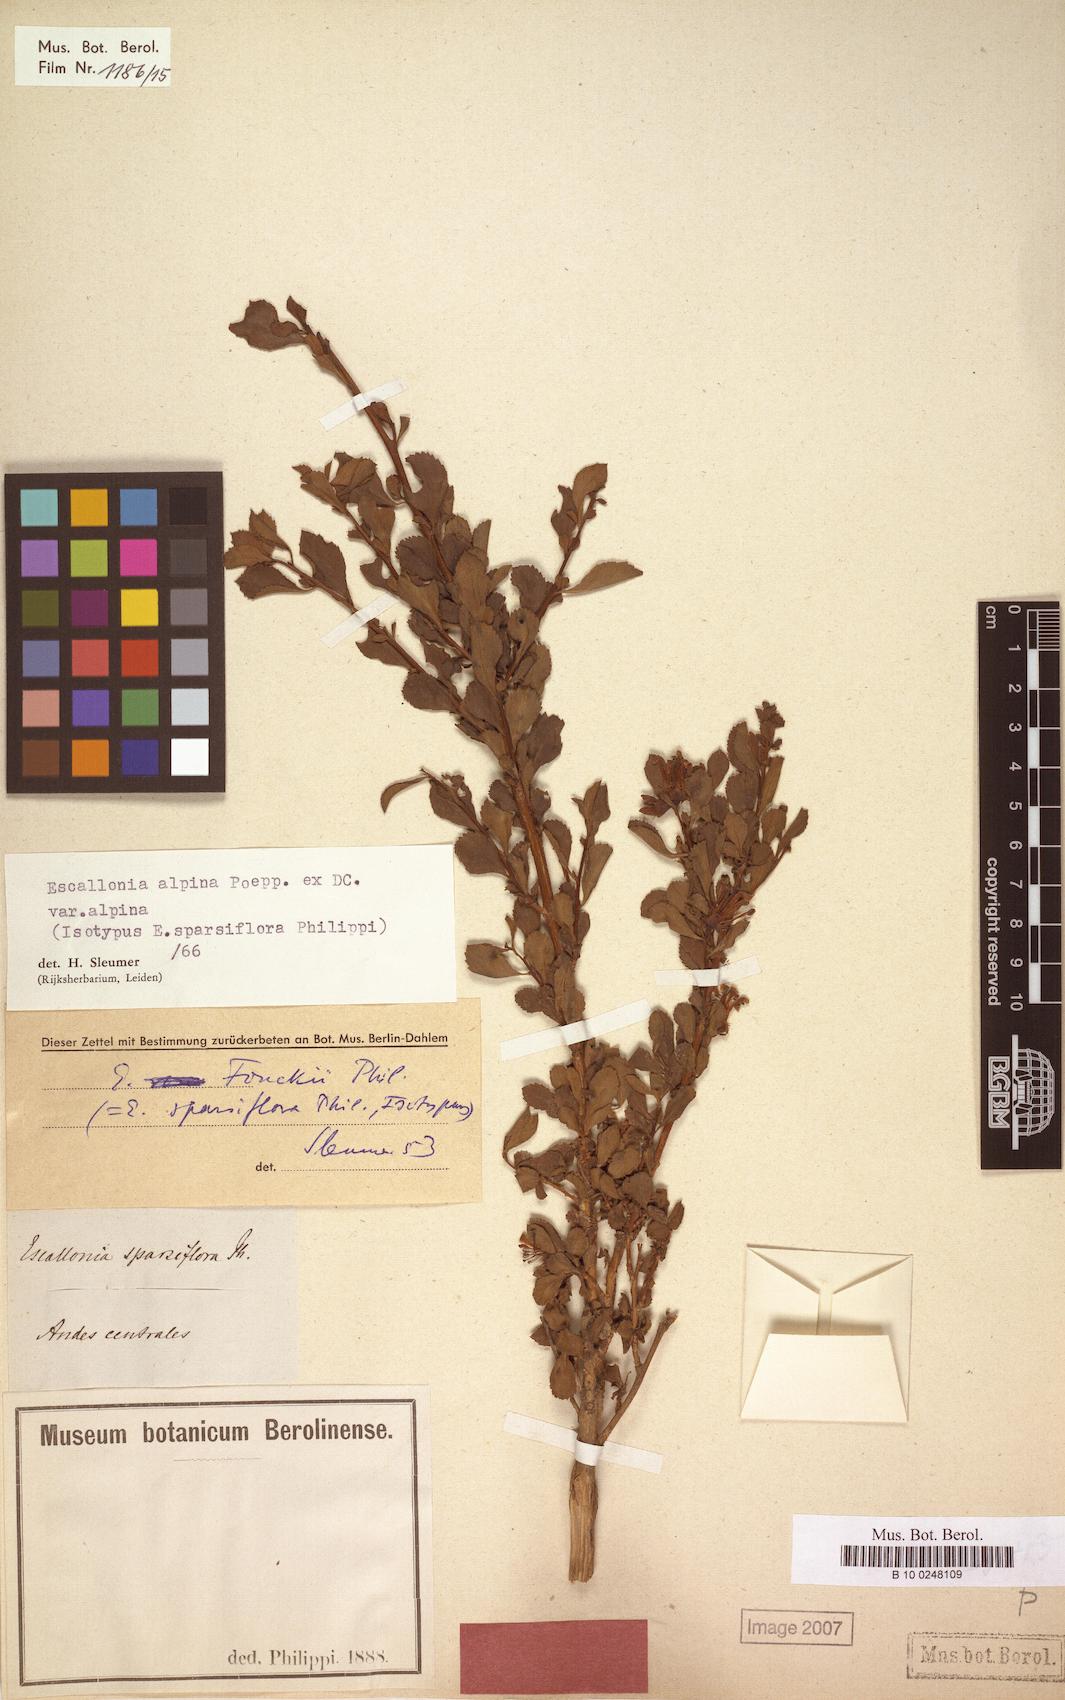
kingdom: Plantae
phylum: Tracheophyta
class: Magnoliopsida
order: Escalloniales
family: Escalloniaceae
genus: Escallonia
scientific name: Escallonia alpina
